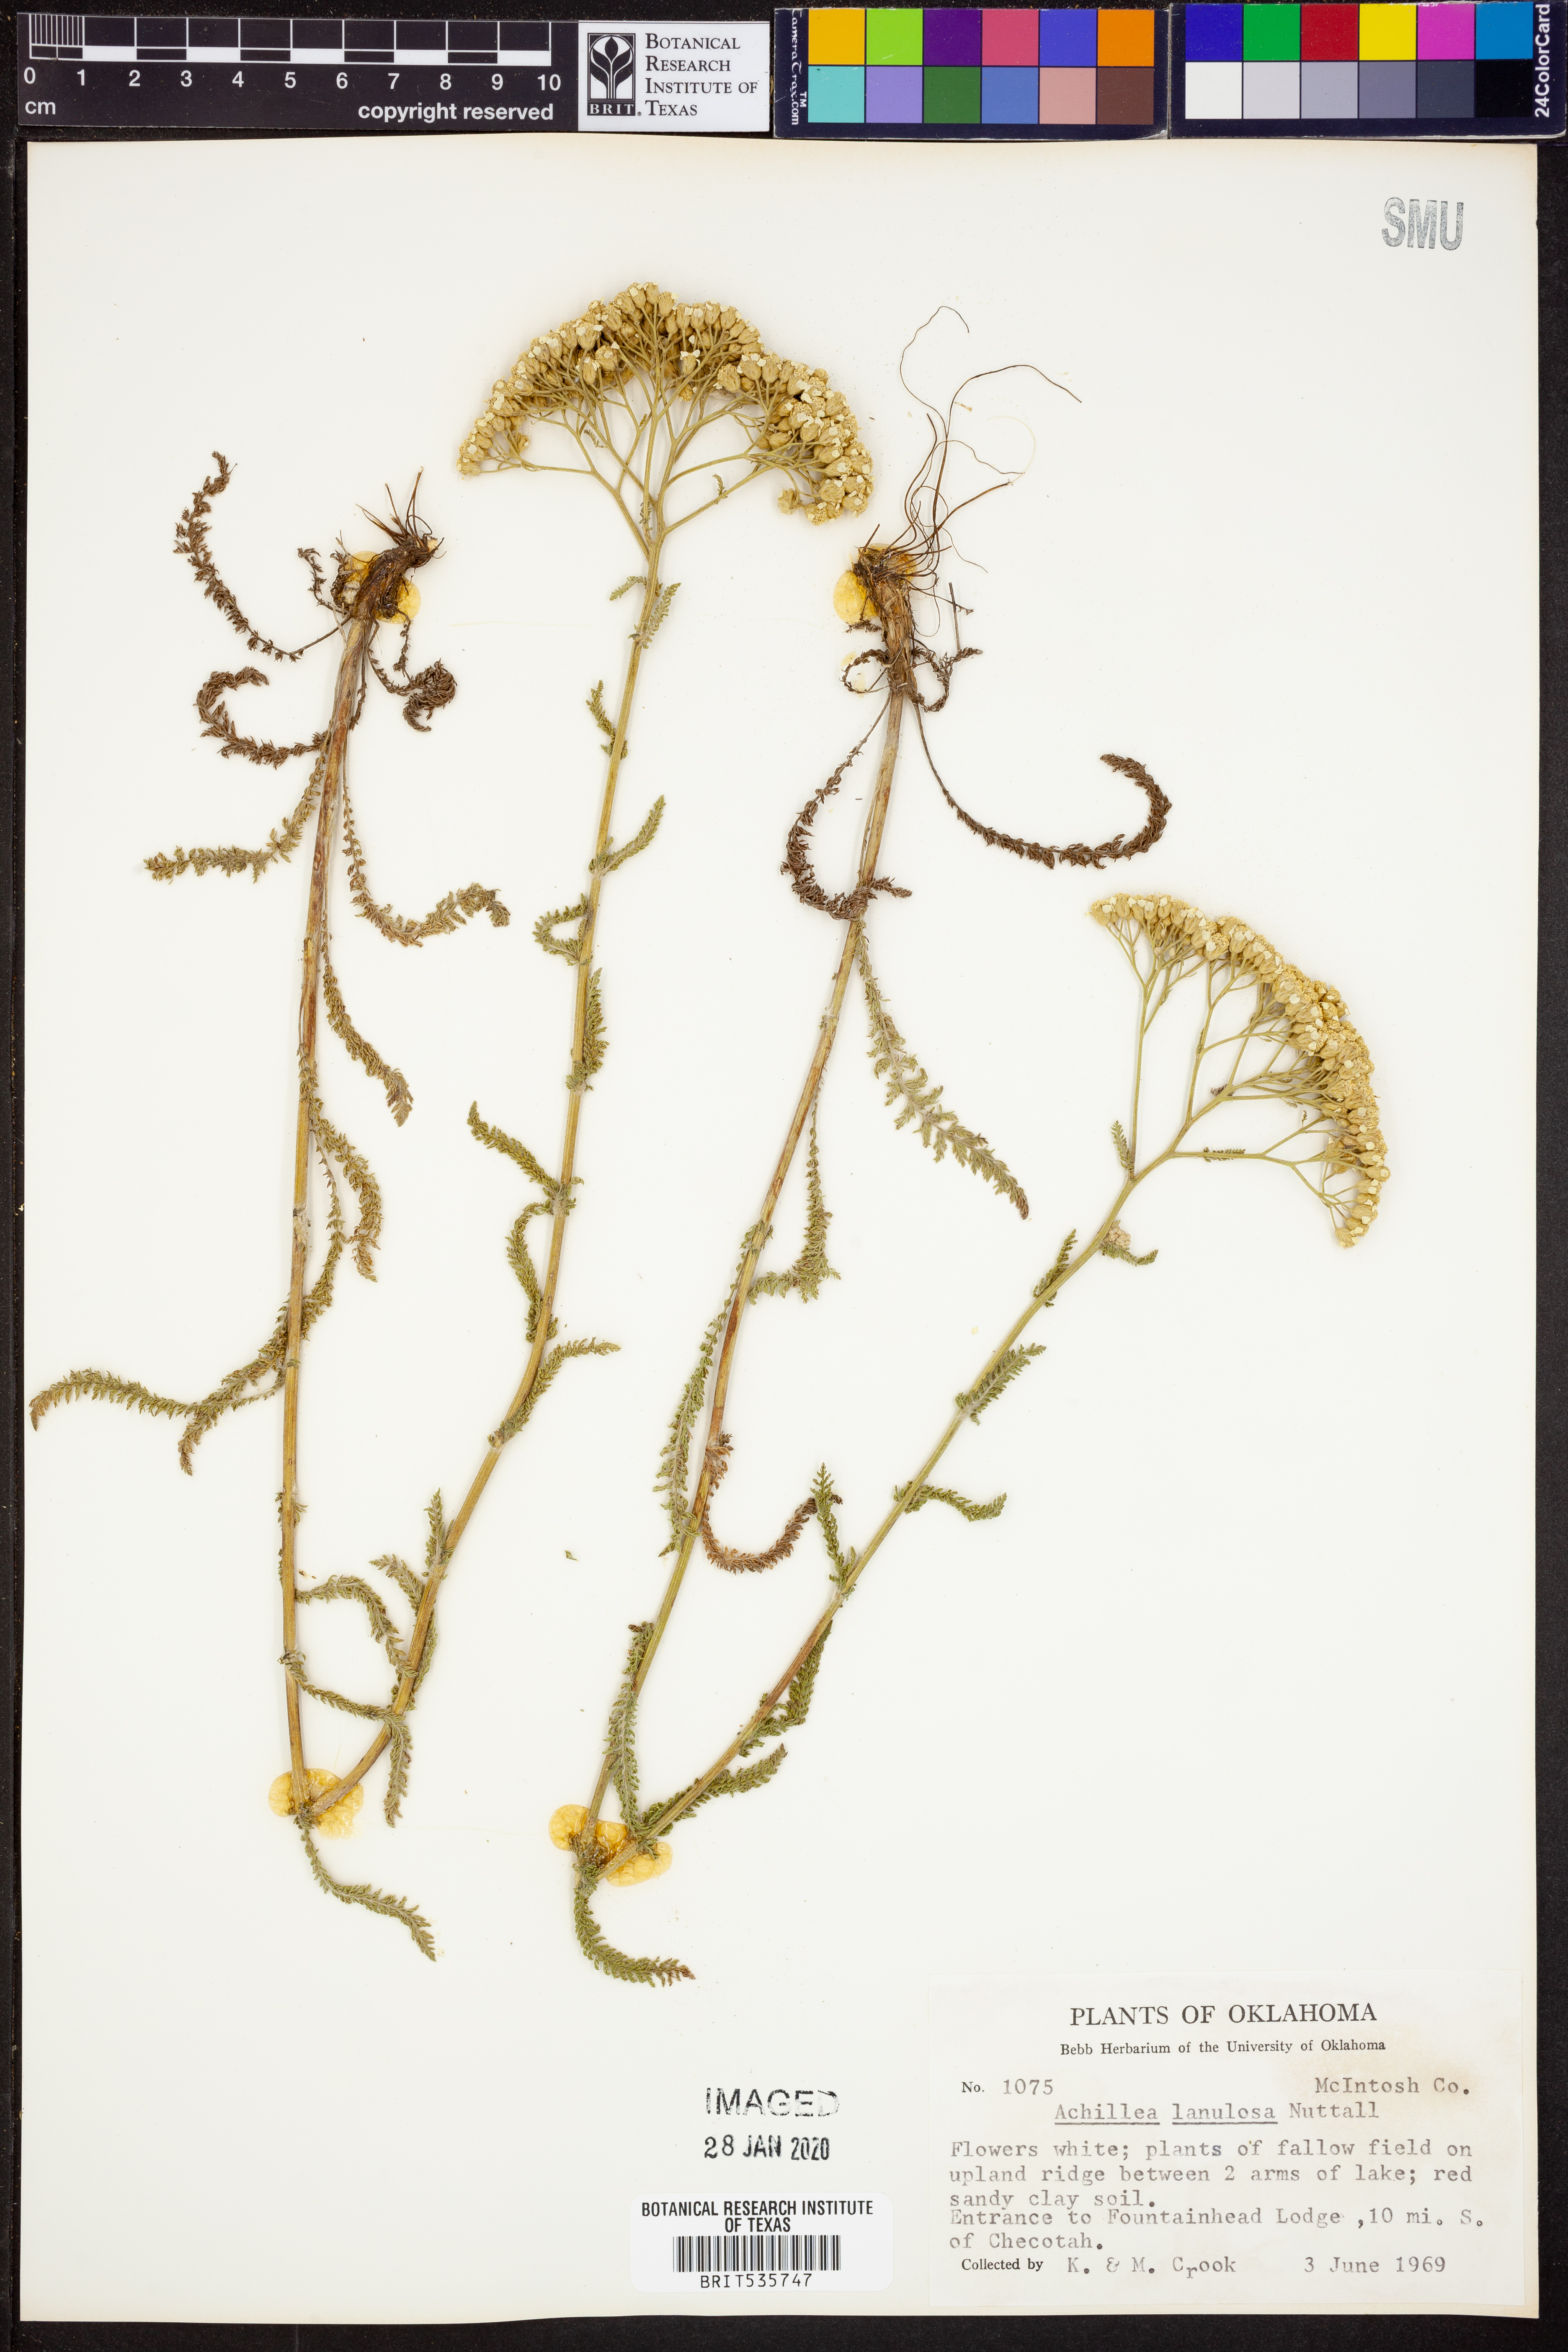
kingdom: Plantae
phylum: Tracheophyta
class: Magnoliopsida
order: Asterales
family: Asteraceae
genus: Achillea
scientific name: Achillea millefolium
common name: Yarrow
